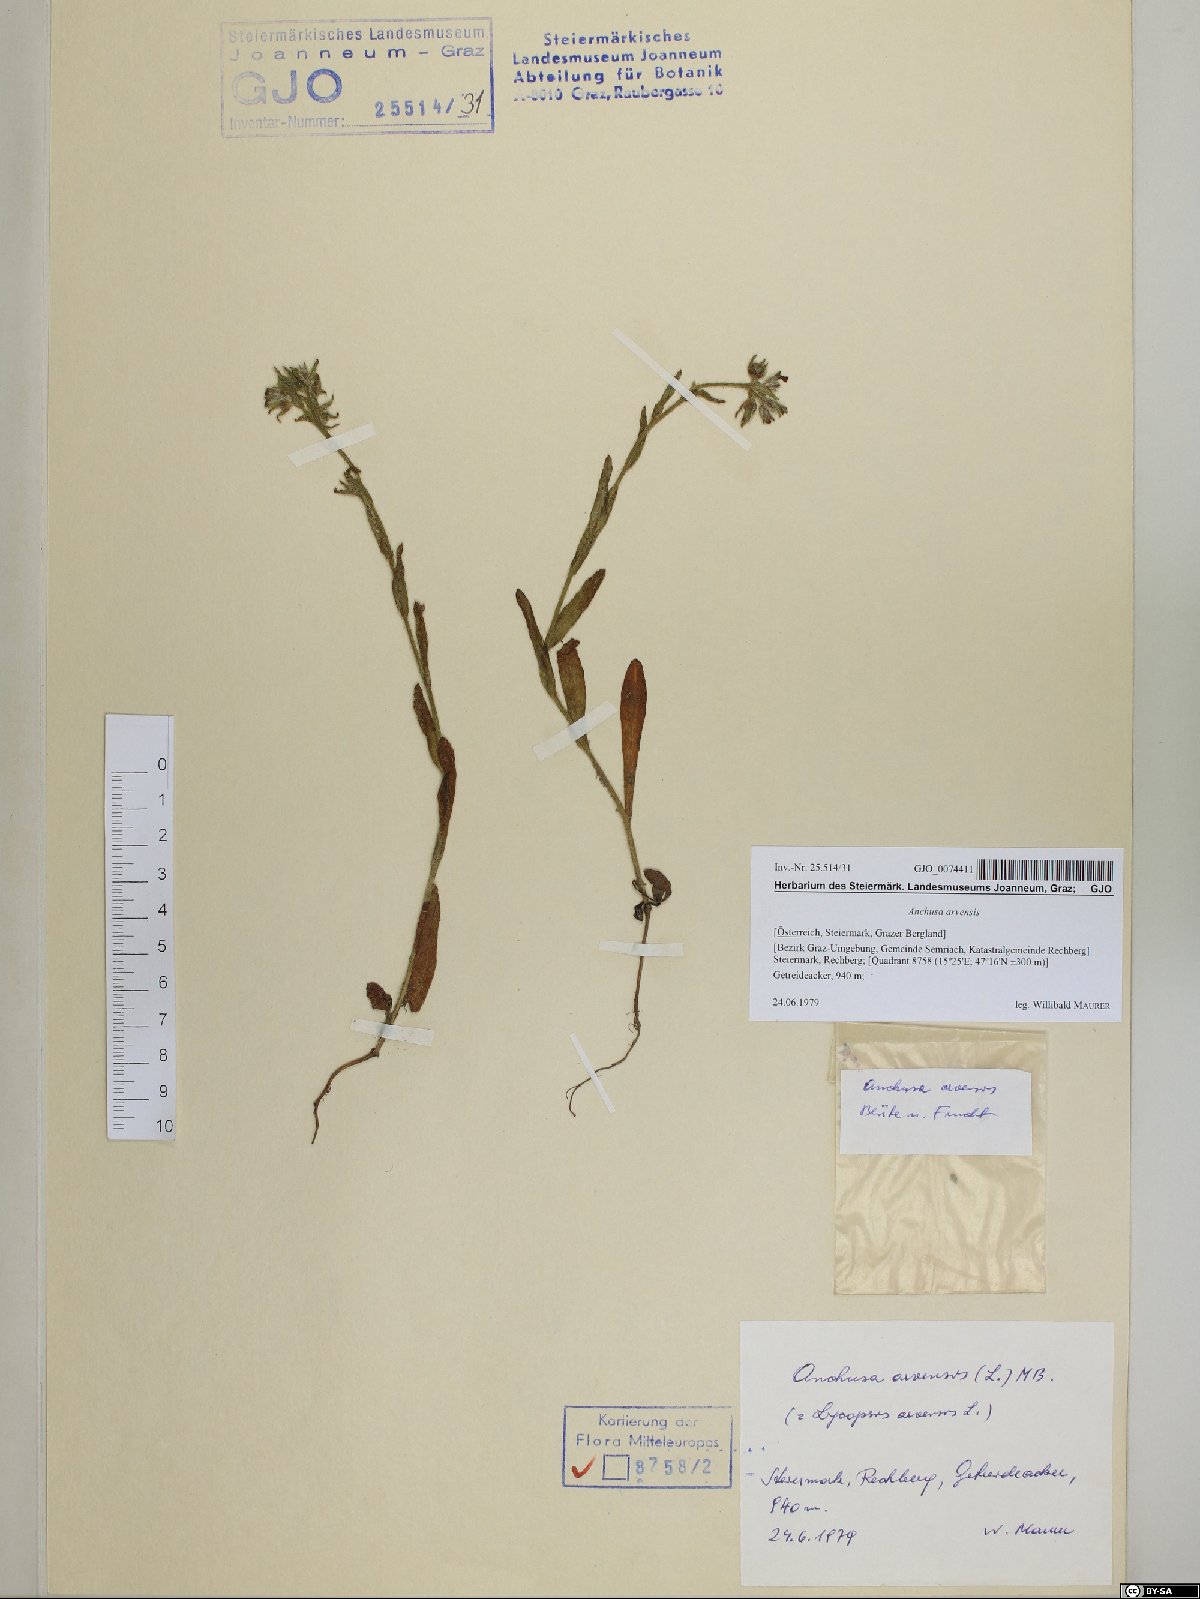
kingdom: Plantae
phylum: Tracheophyta
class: Magnoliopsida
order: Boraginales
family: Boraginaceae
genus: Lycopsis
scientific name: Lycopsis arvensis
